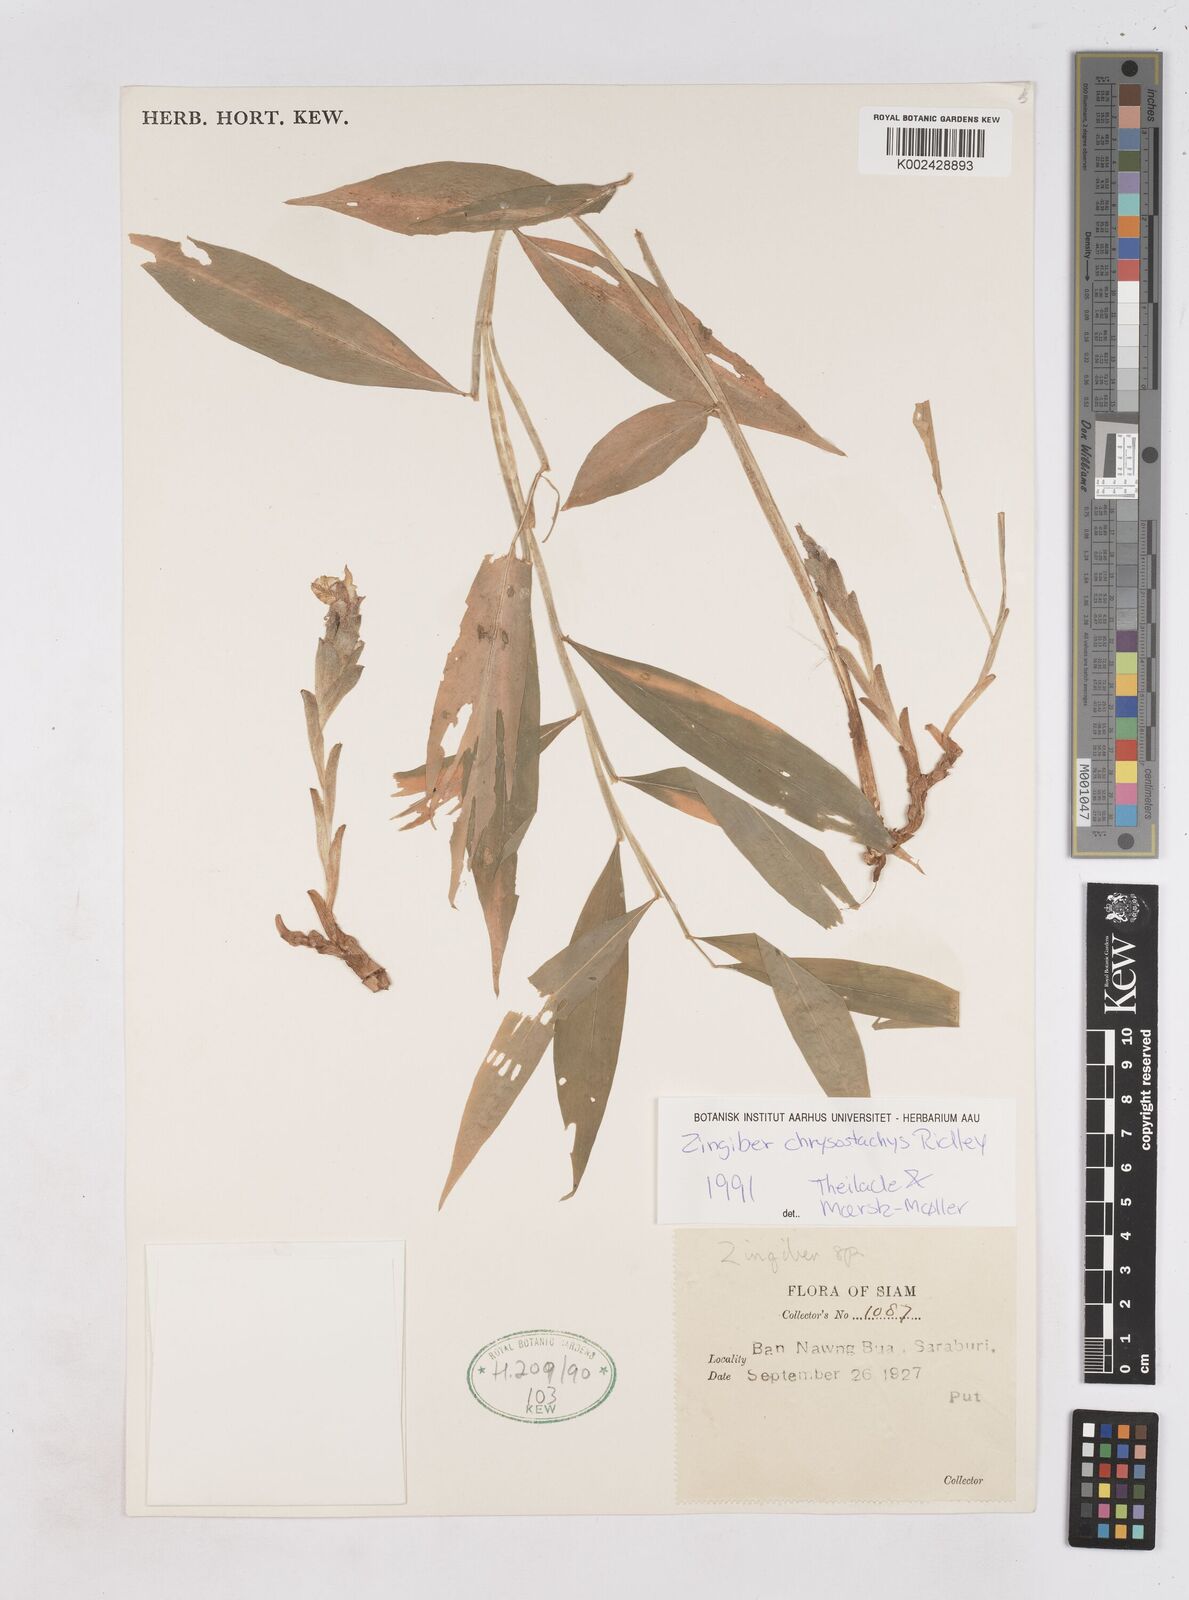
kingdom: Plantae
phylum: Tracheophyta
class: Liliopsida
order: Zingiberales
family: Zingiberaceae
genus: Zingiber
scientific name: Zingiber chrysostachys
